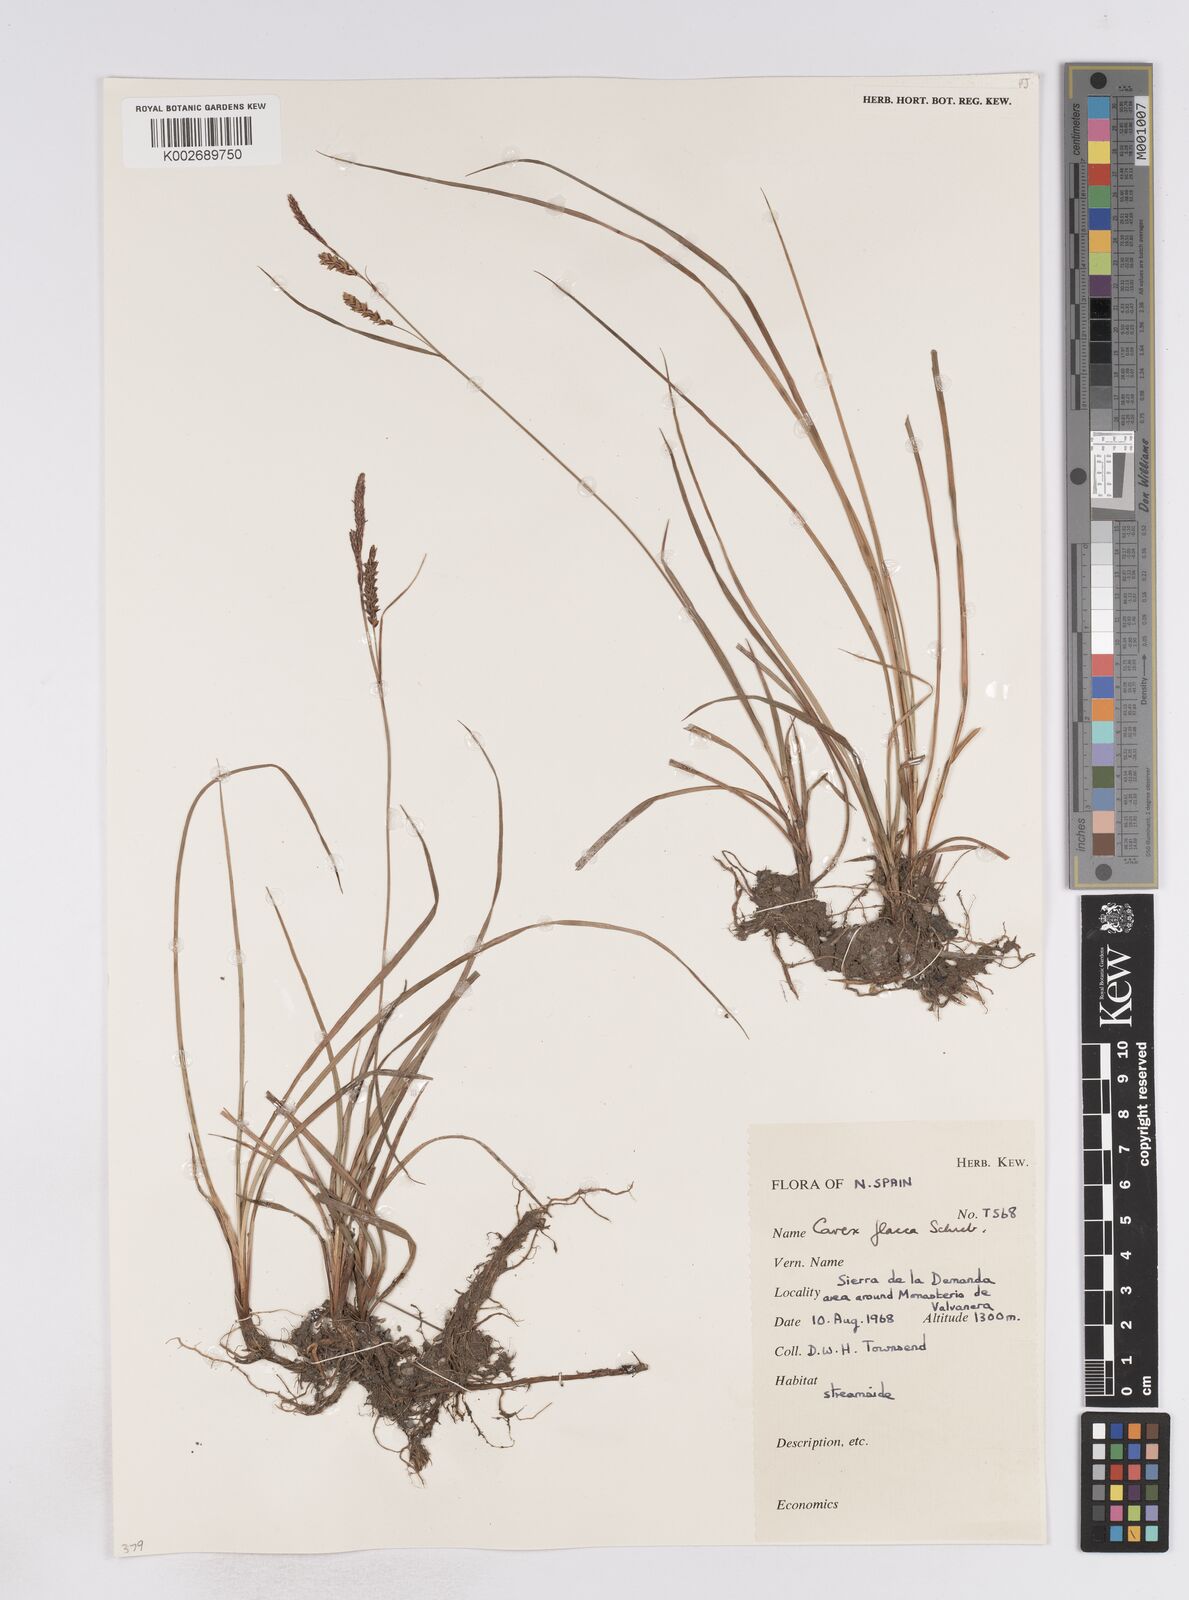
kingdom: Plantae
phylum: Tracheophyta
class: Liliopsida
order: Poales
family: Cyperaceae
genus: Carex
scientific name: Carex flacca
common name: Glaucous sedge
